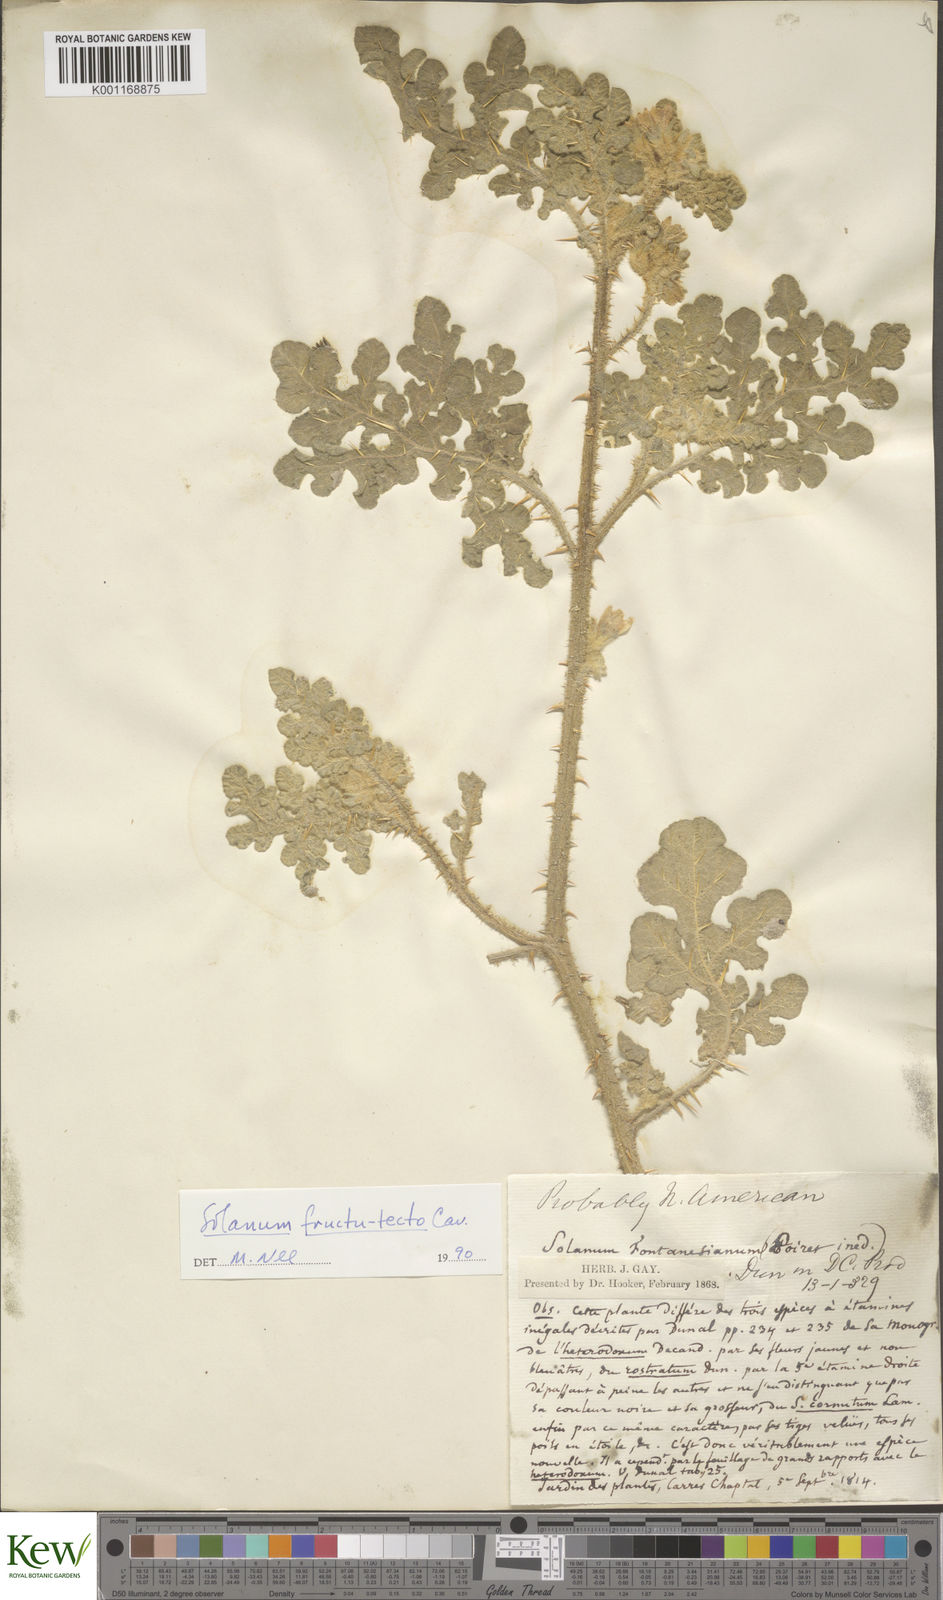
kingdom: Plantae
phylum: Tracheophyta
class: Magnoliopsida
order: Solanales
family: Solanaceae
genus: Solanum
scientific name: Solanum tectum
